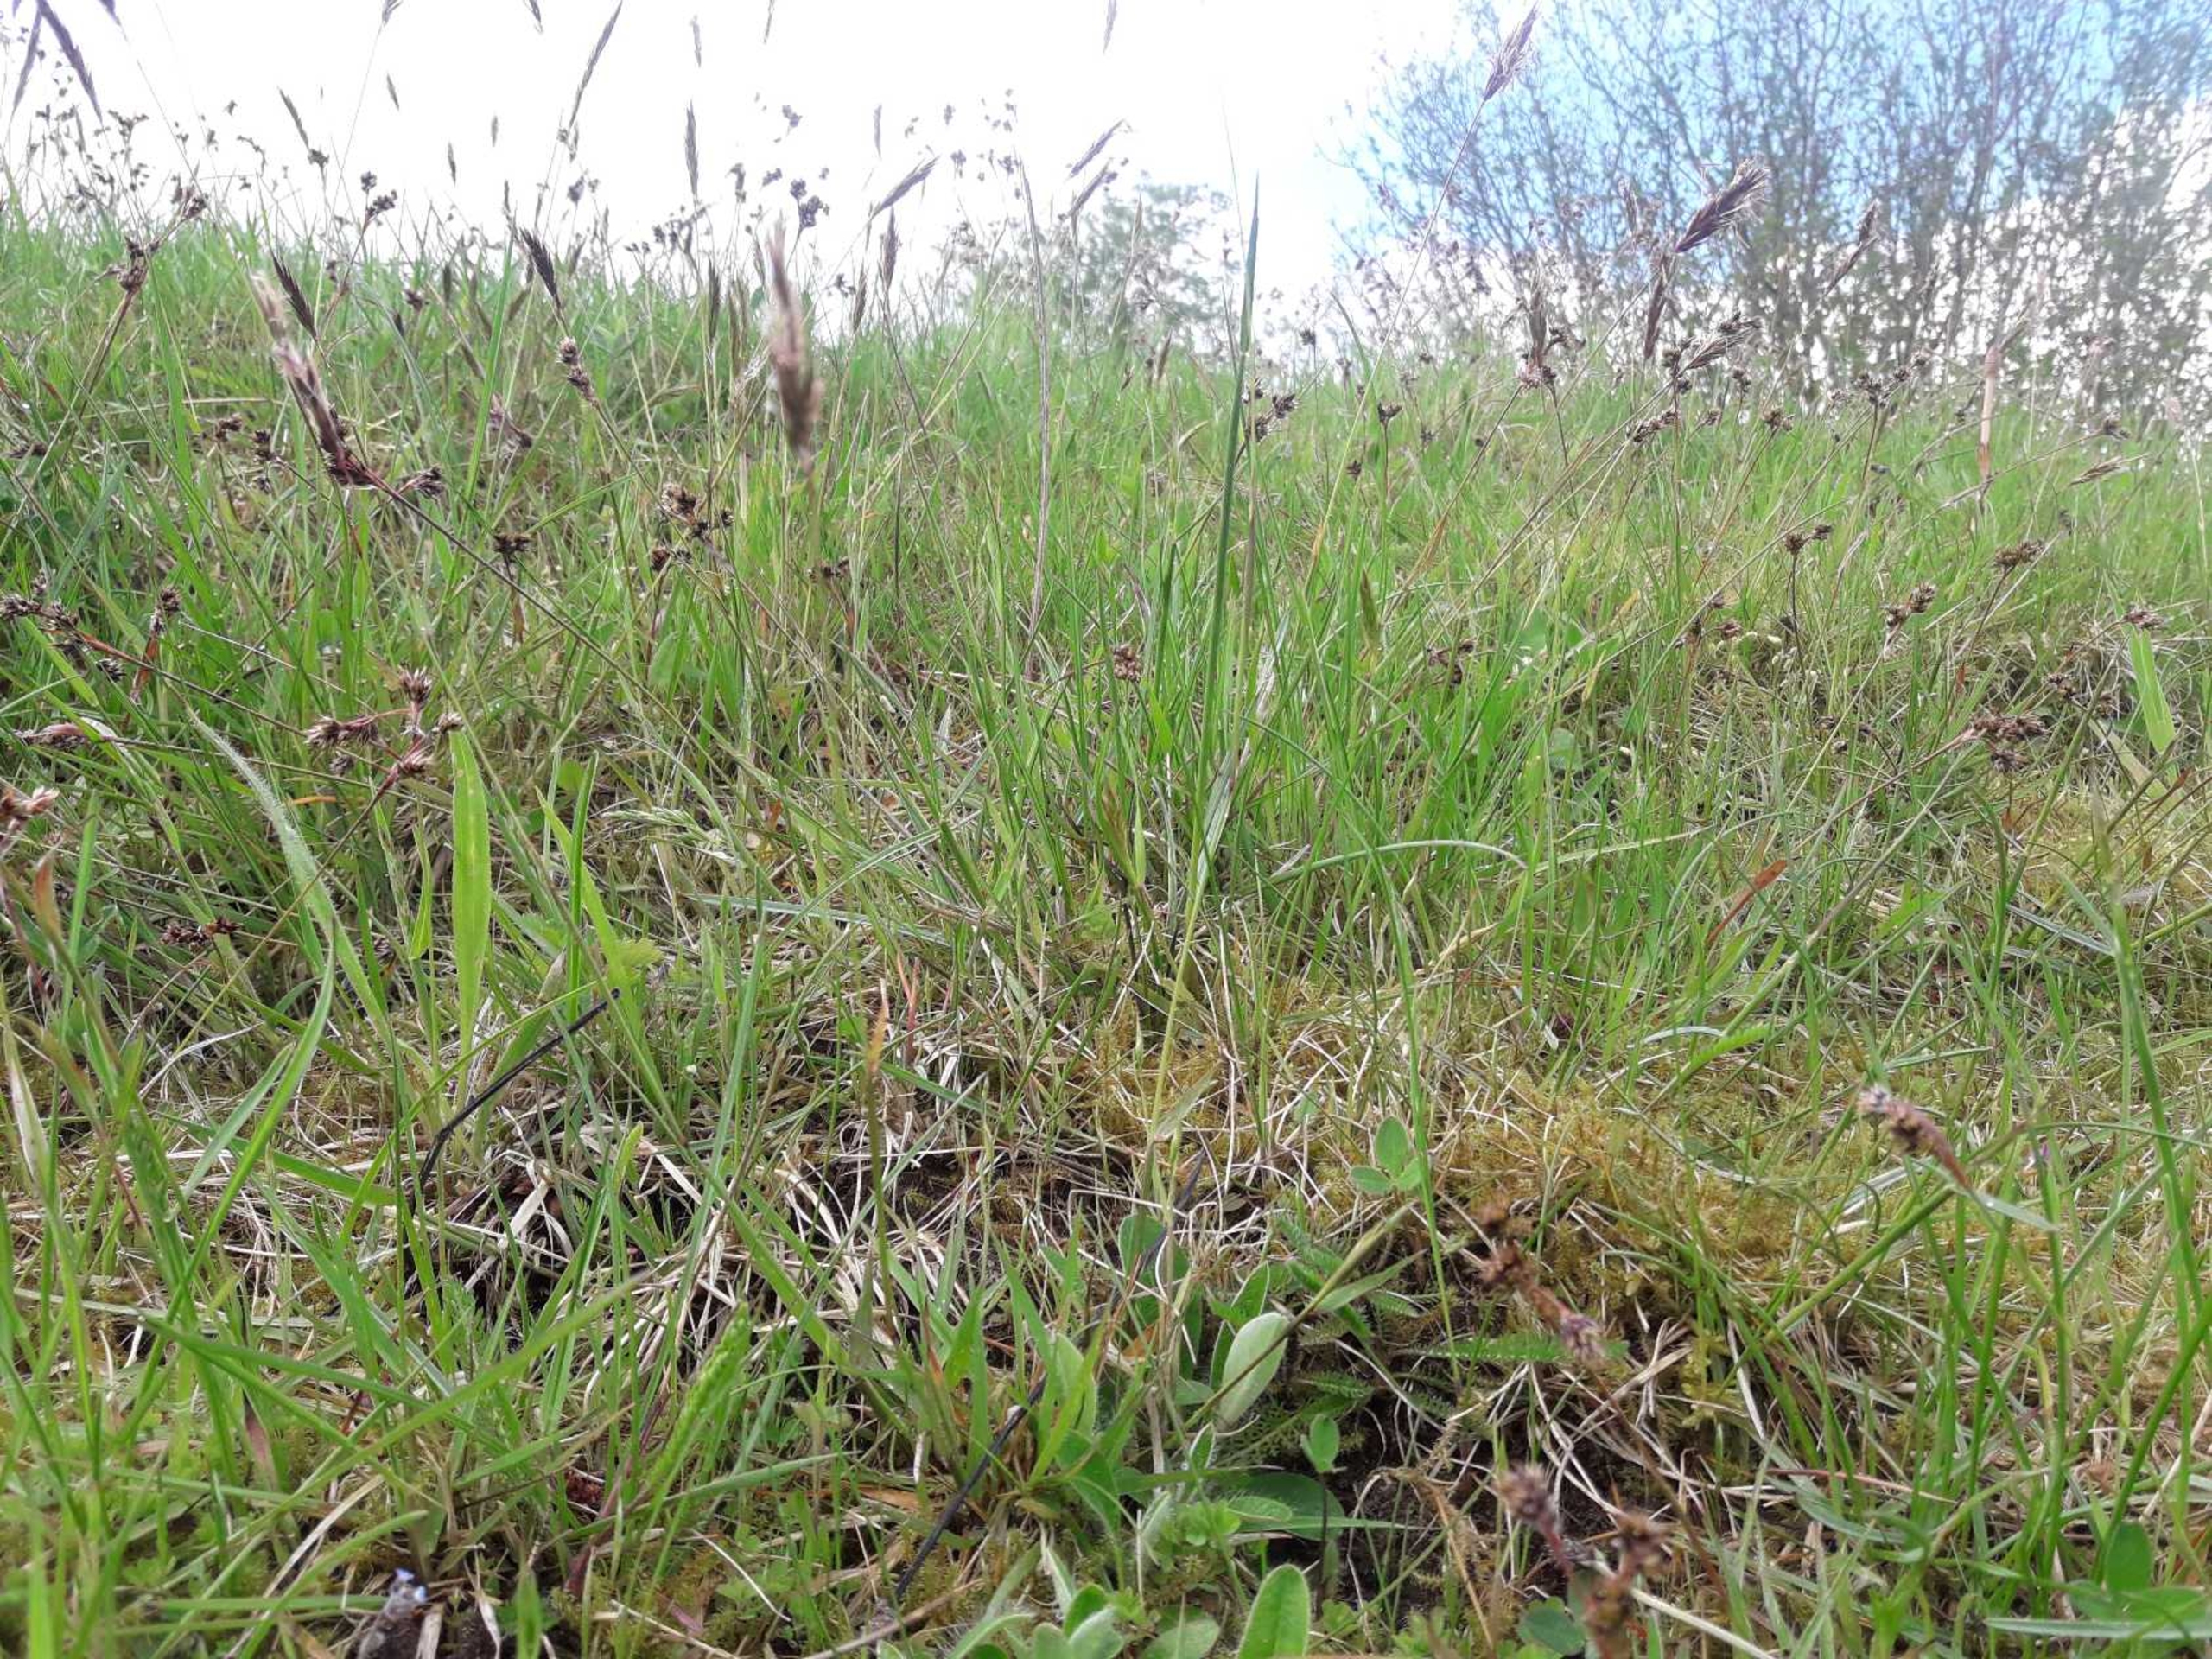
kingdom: Plantae
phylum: Tracheophyta
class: Liliopsida
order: Poales
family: Poaceae
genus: Anthoxanthum
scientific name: Anthoxanthum odoratum
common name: Vellugtende gulaks
